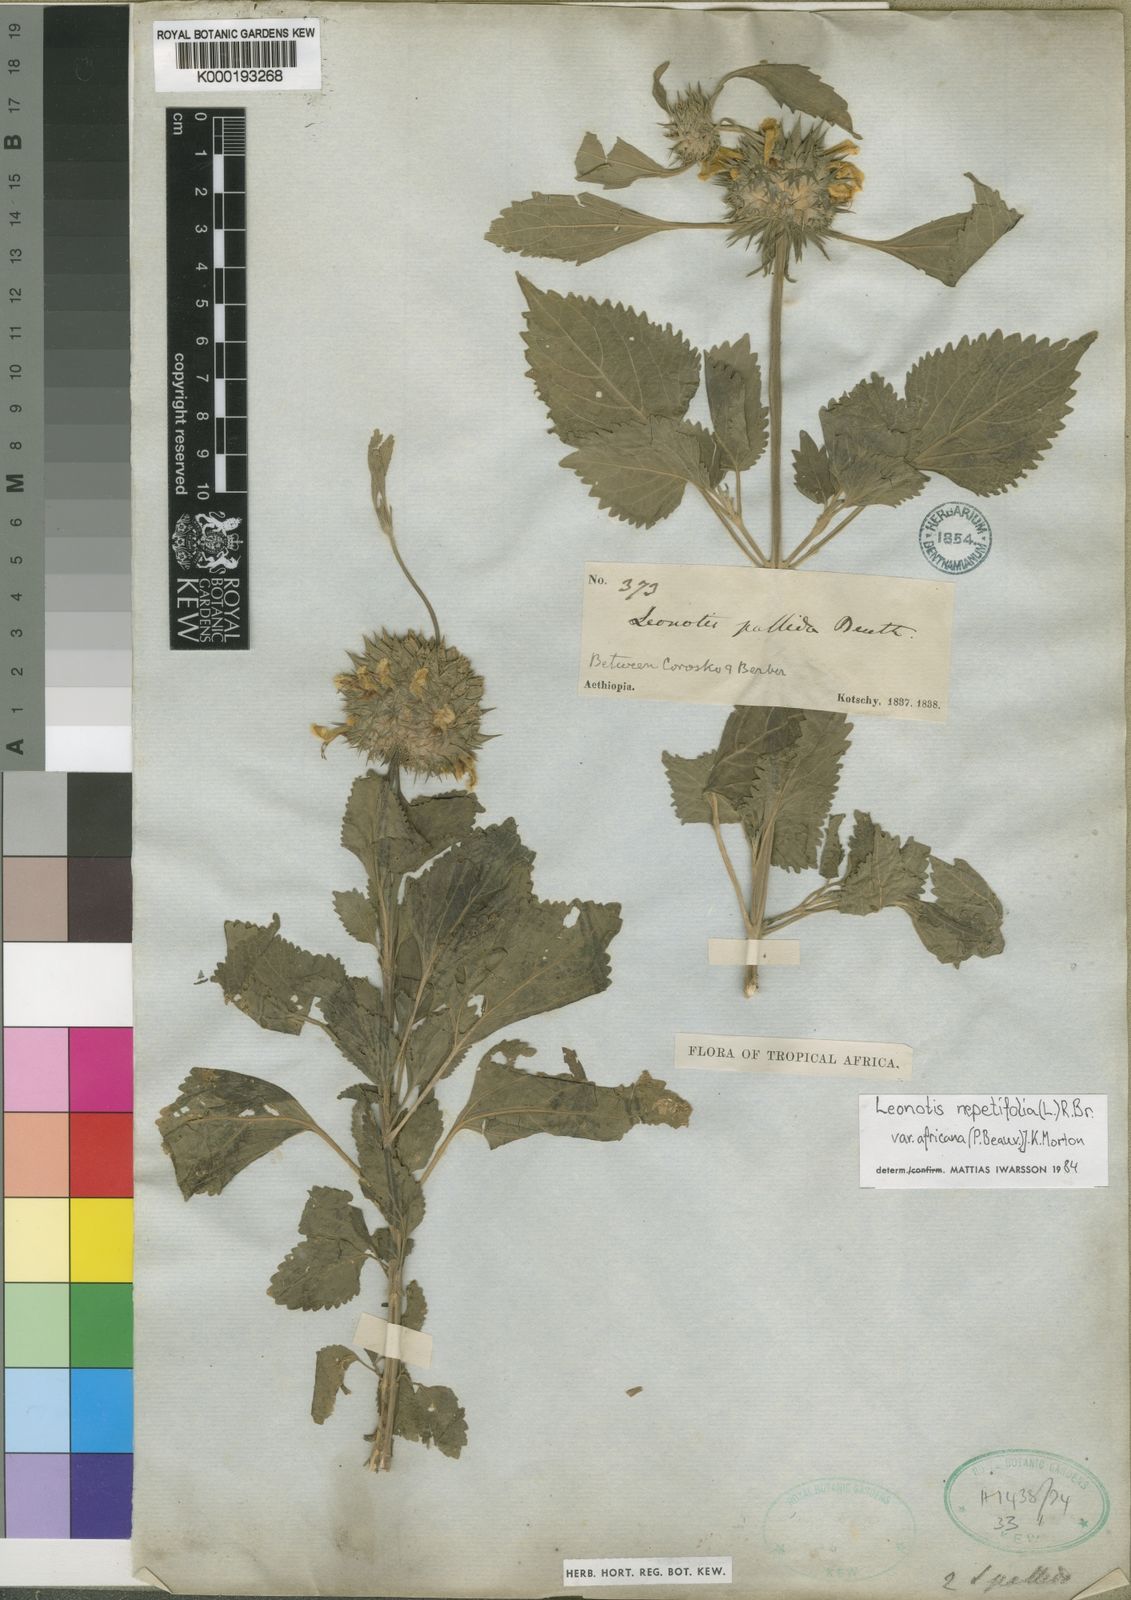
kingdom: Plantae
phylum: Tracheophyta
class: Magnoliopsida
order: Lamiales
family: Lamiaceae
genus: Leonotis
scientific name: Leonotis nepetifolia
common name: Christmas candlestick
